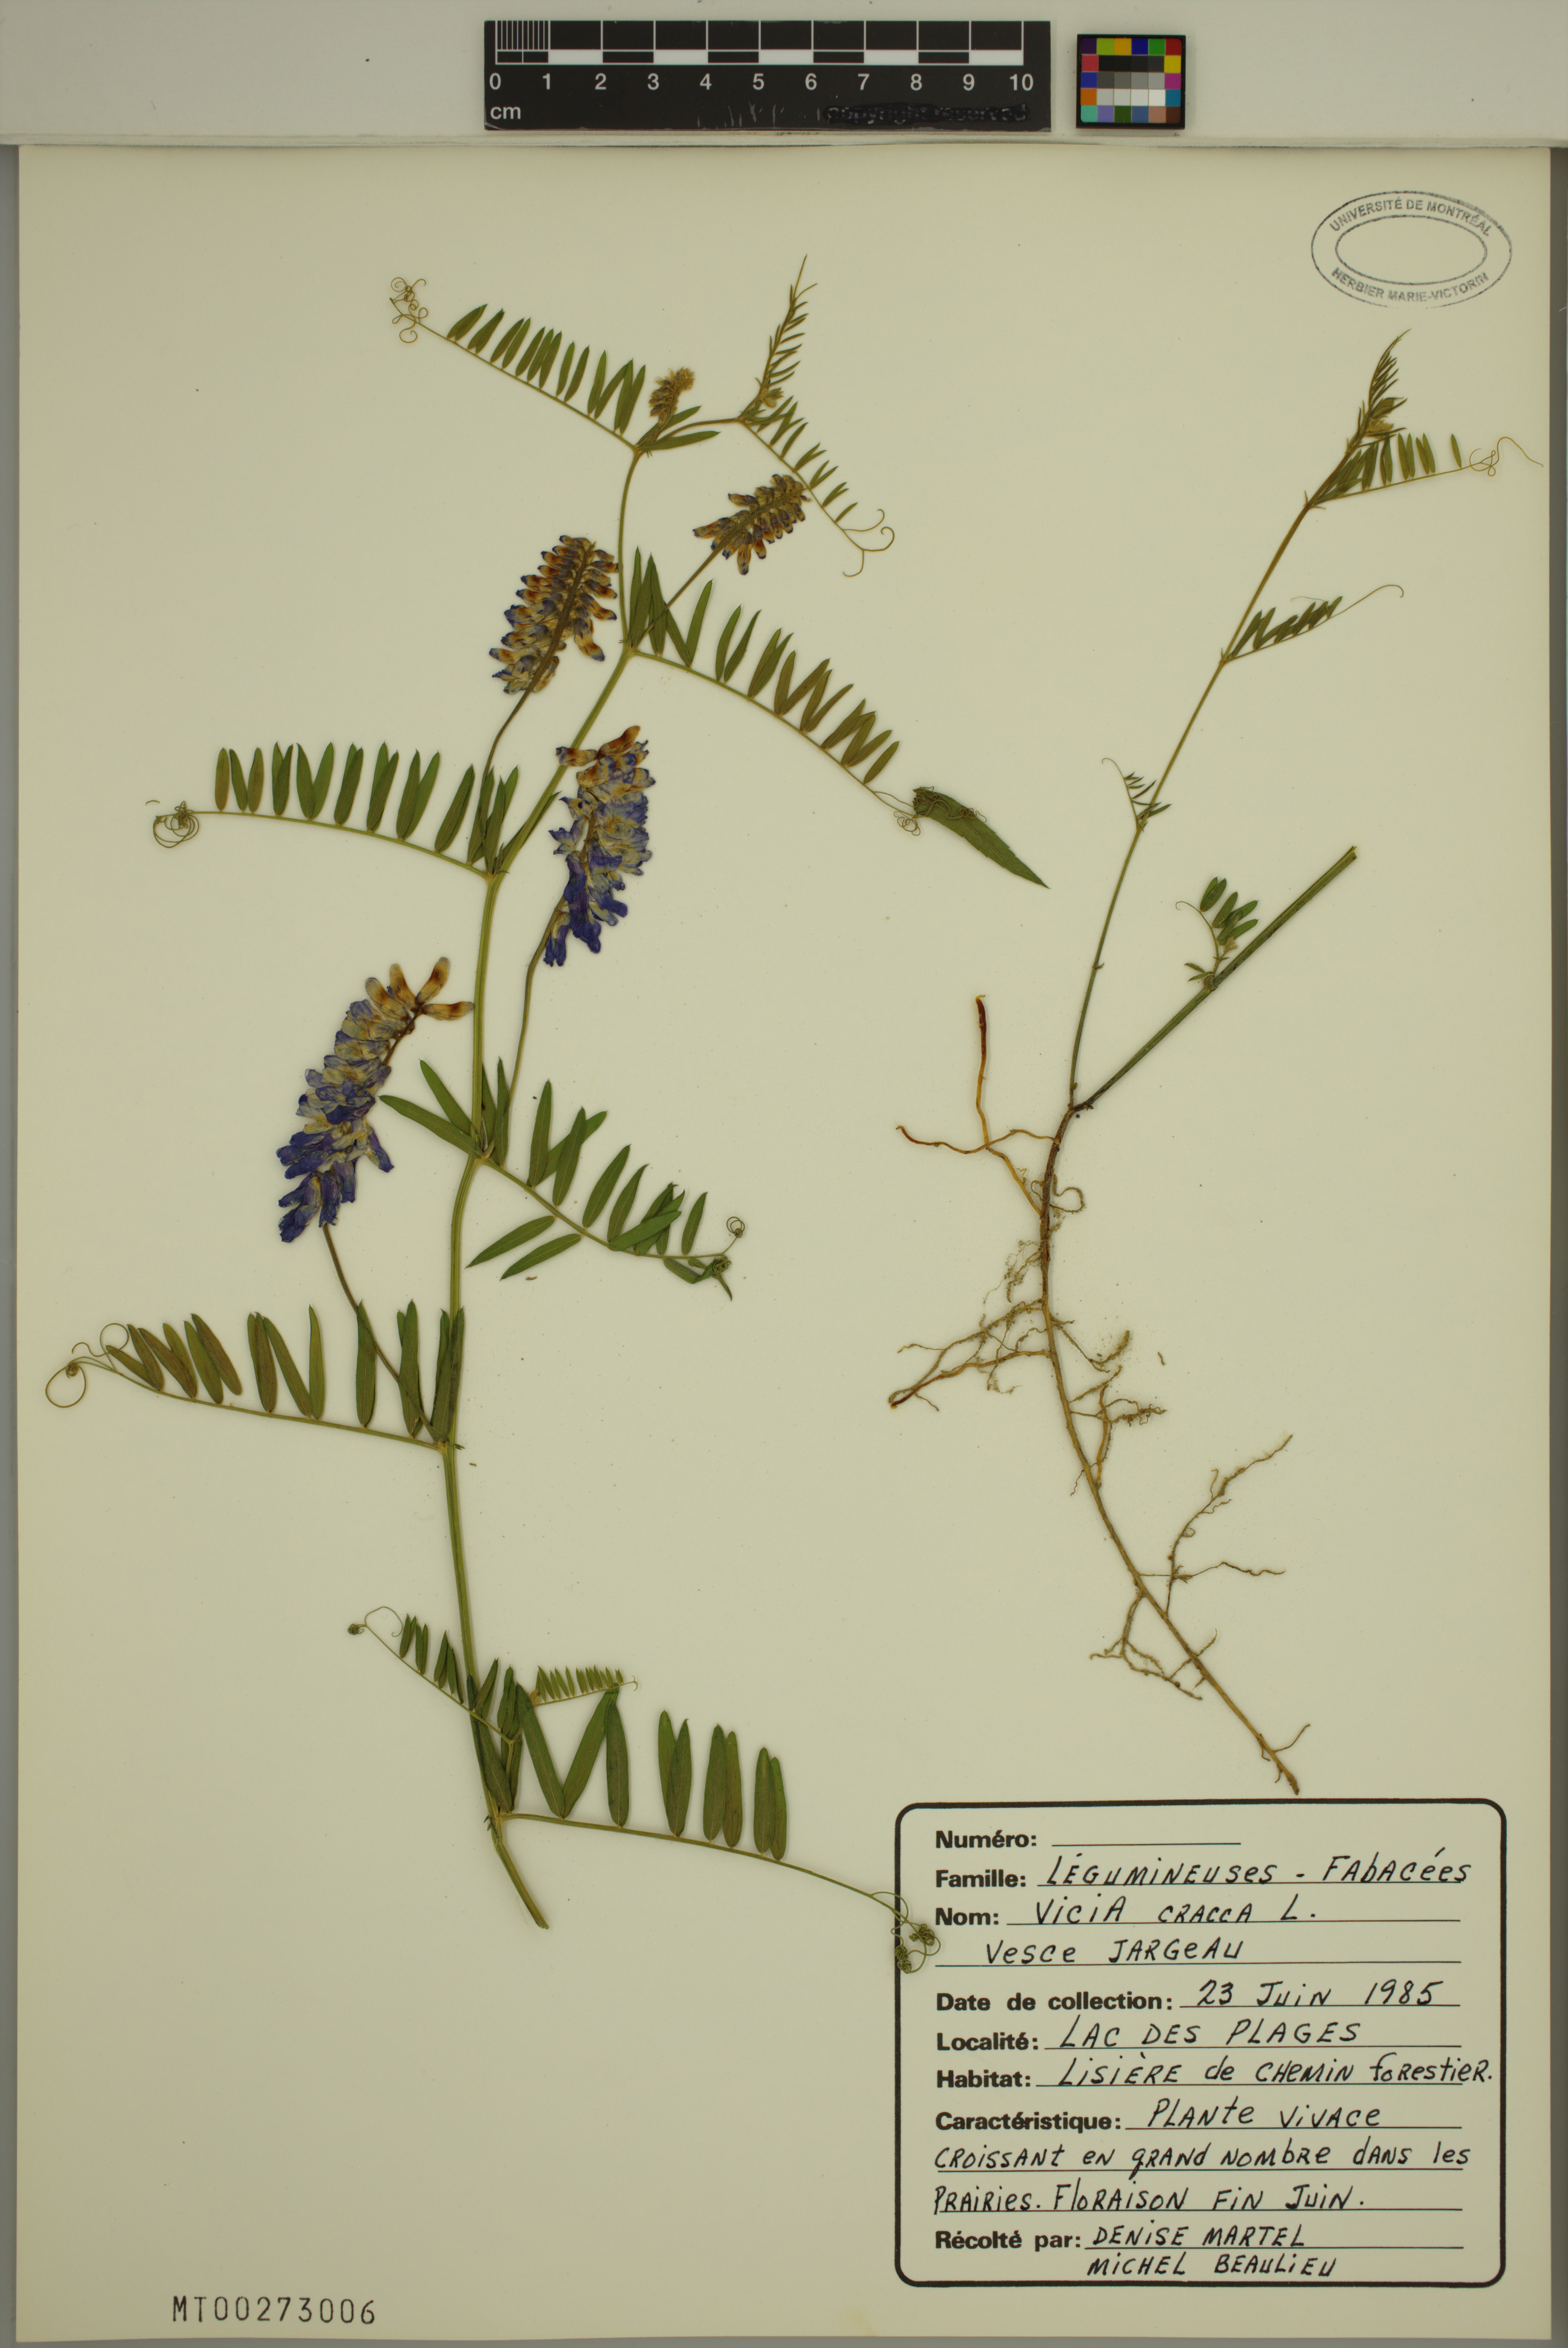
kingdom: Plantae
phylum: Tracheophyta
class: Magnoliopsida
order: Fabales
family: Fabaceae
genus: Vicia
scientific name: Vicia cracca
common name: Bird vetch
